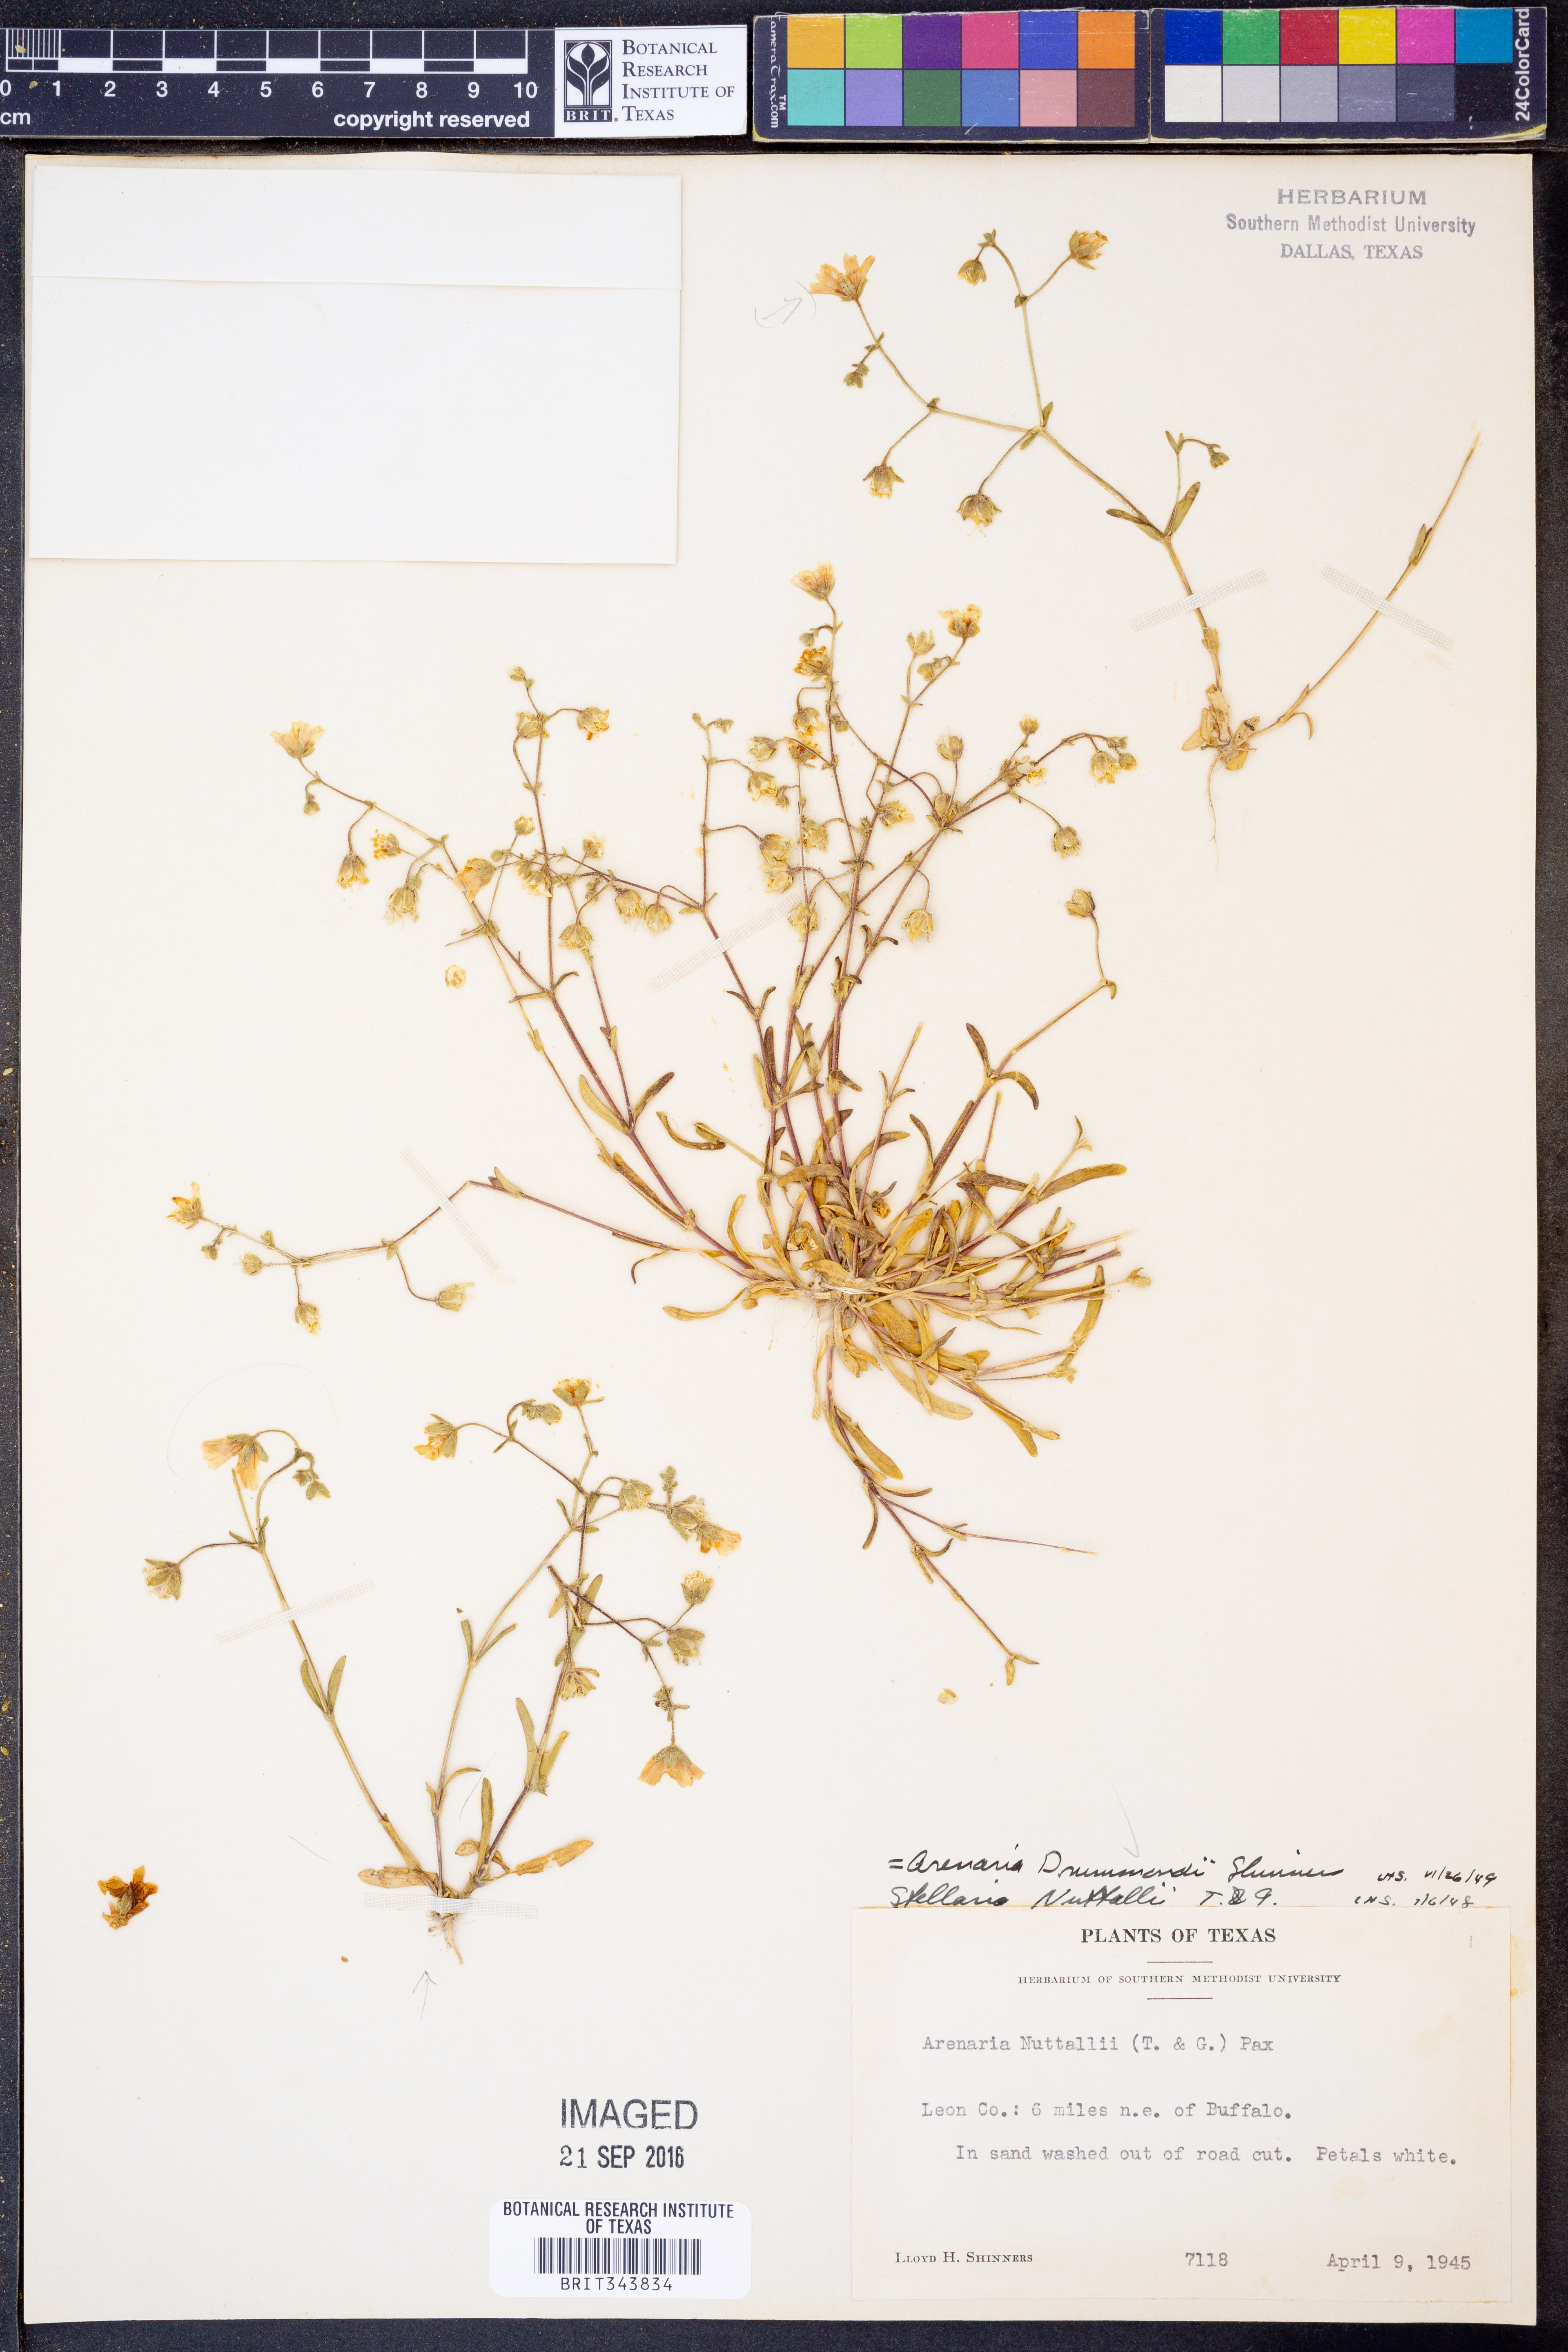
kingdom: Plantae
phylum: Tracheophyta
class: Magnoliopsida
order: Caryophyllales
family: Caryophyllaceae
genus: Geocarpon
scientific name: Geocarpon nuttallii
